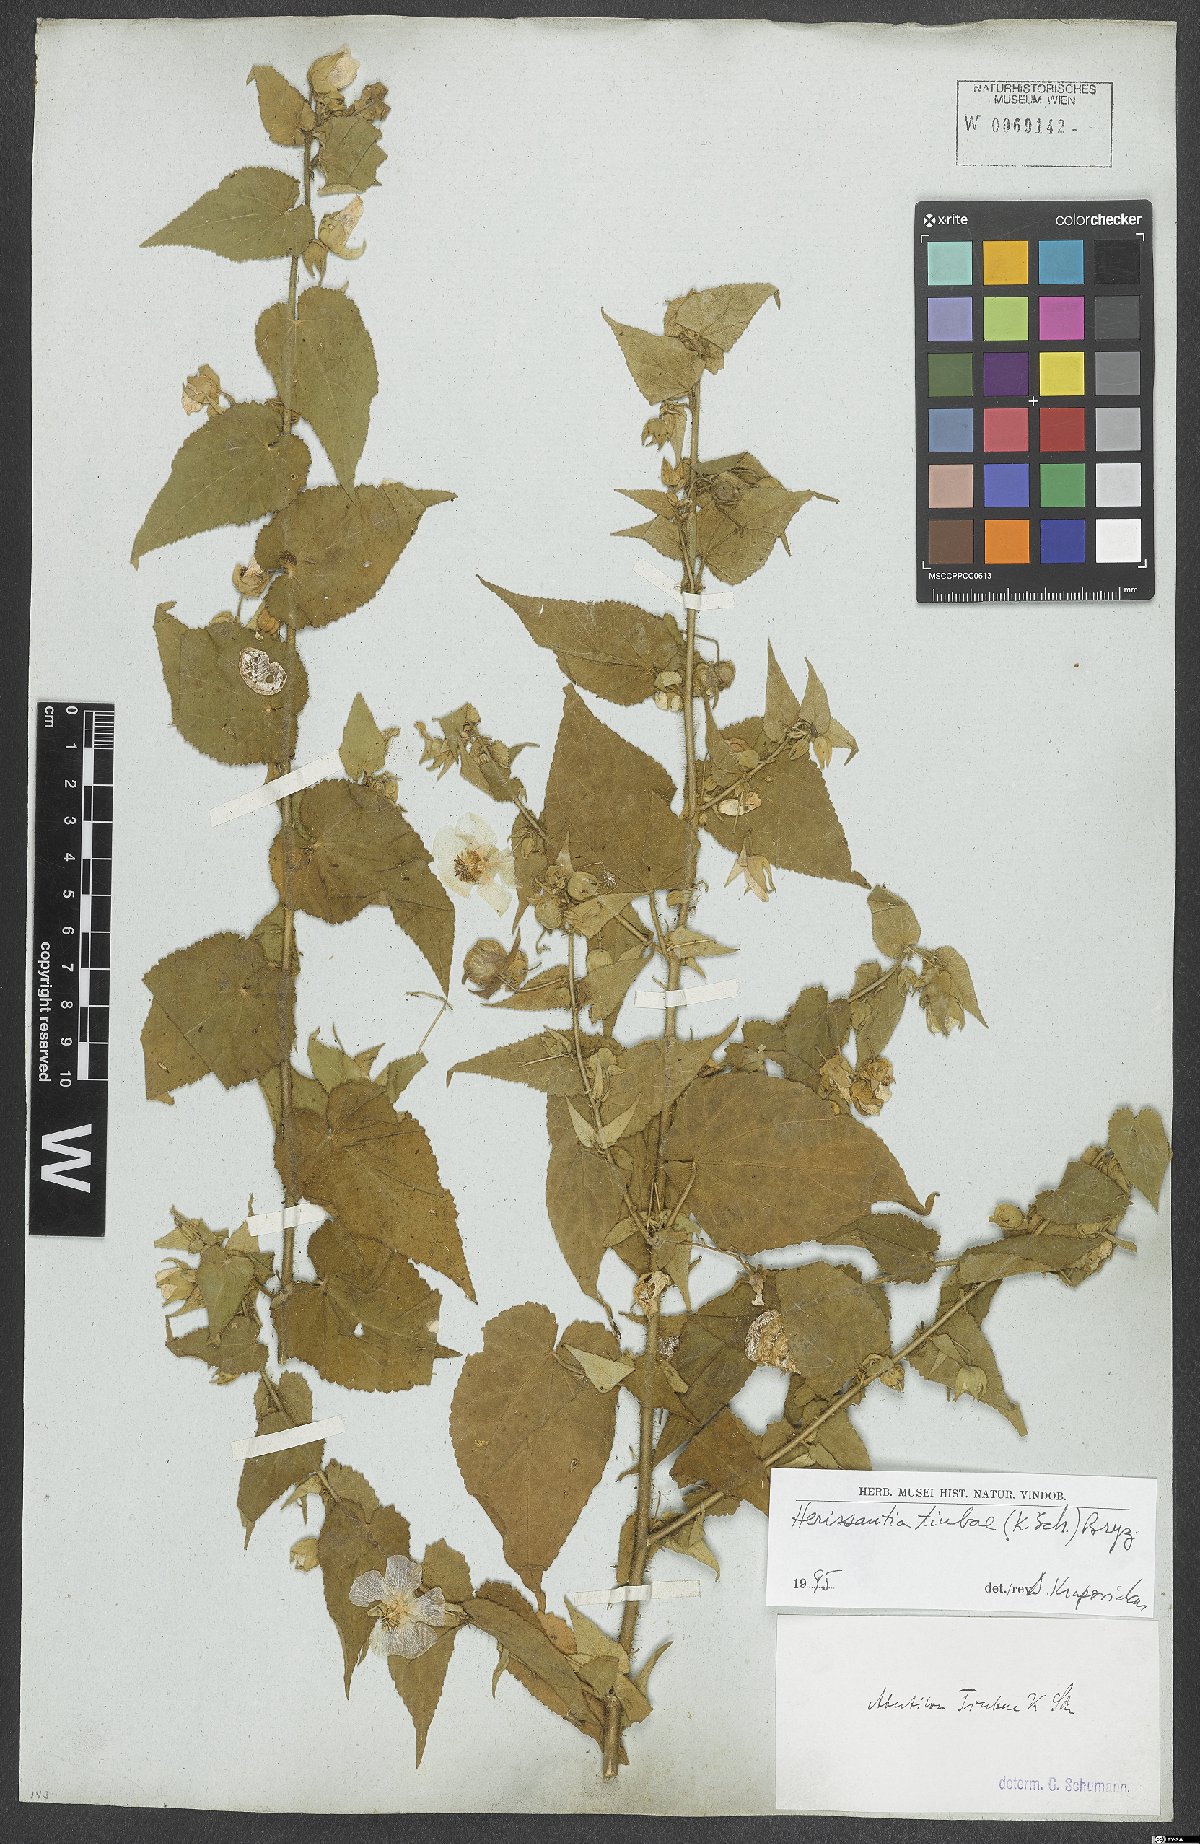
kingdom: Plantae
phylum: Tracheophyta
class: Magnoliopsida
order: Malvales
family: Malvaceae
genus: Herissantia
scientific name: Herissantia tiubae
